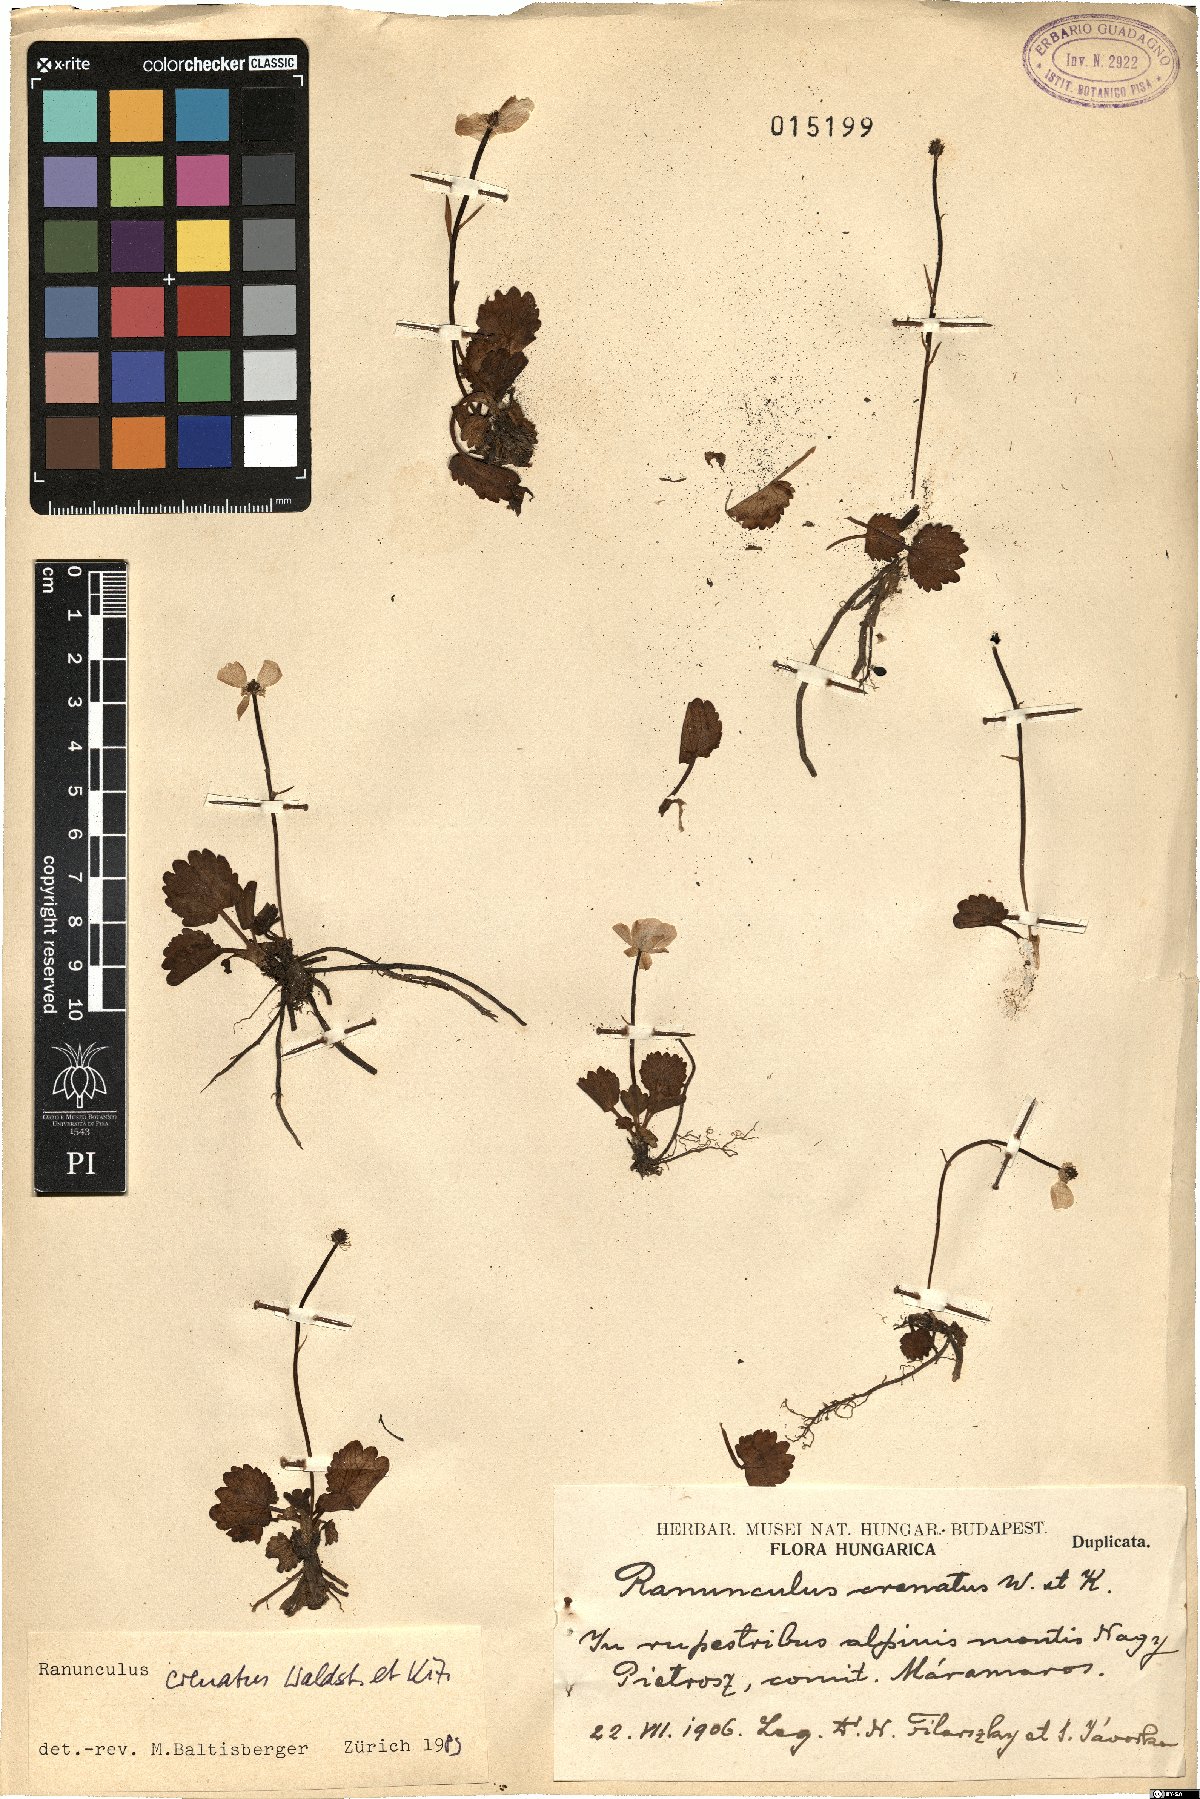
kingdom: Plantae
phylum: Tracheophyta
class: Magnoliopsida
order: Ranunculales
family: Ranunculaceae
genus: Ranunculus
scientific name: Ranunculus crenatus
